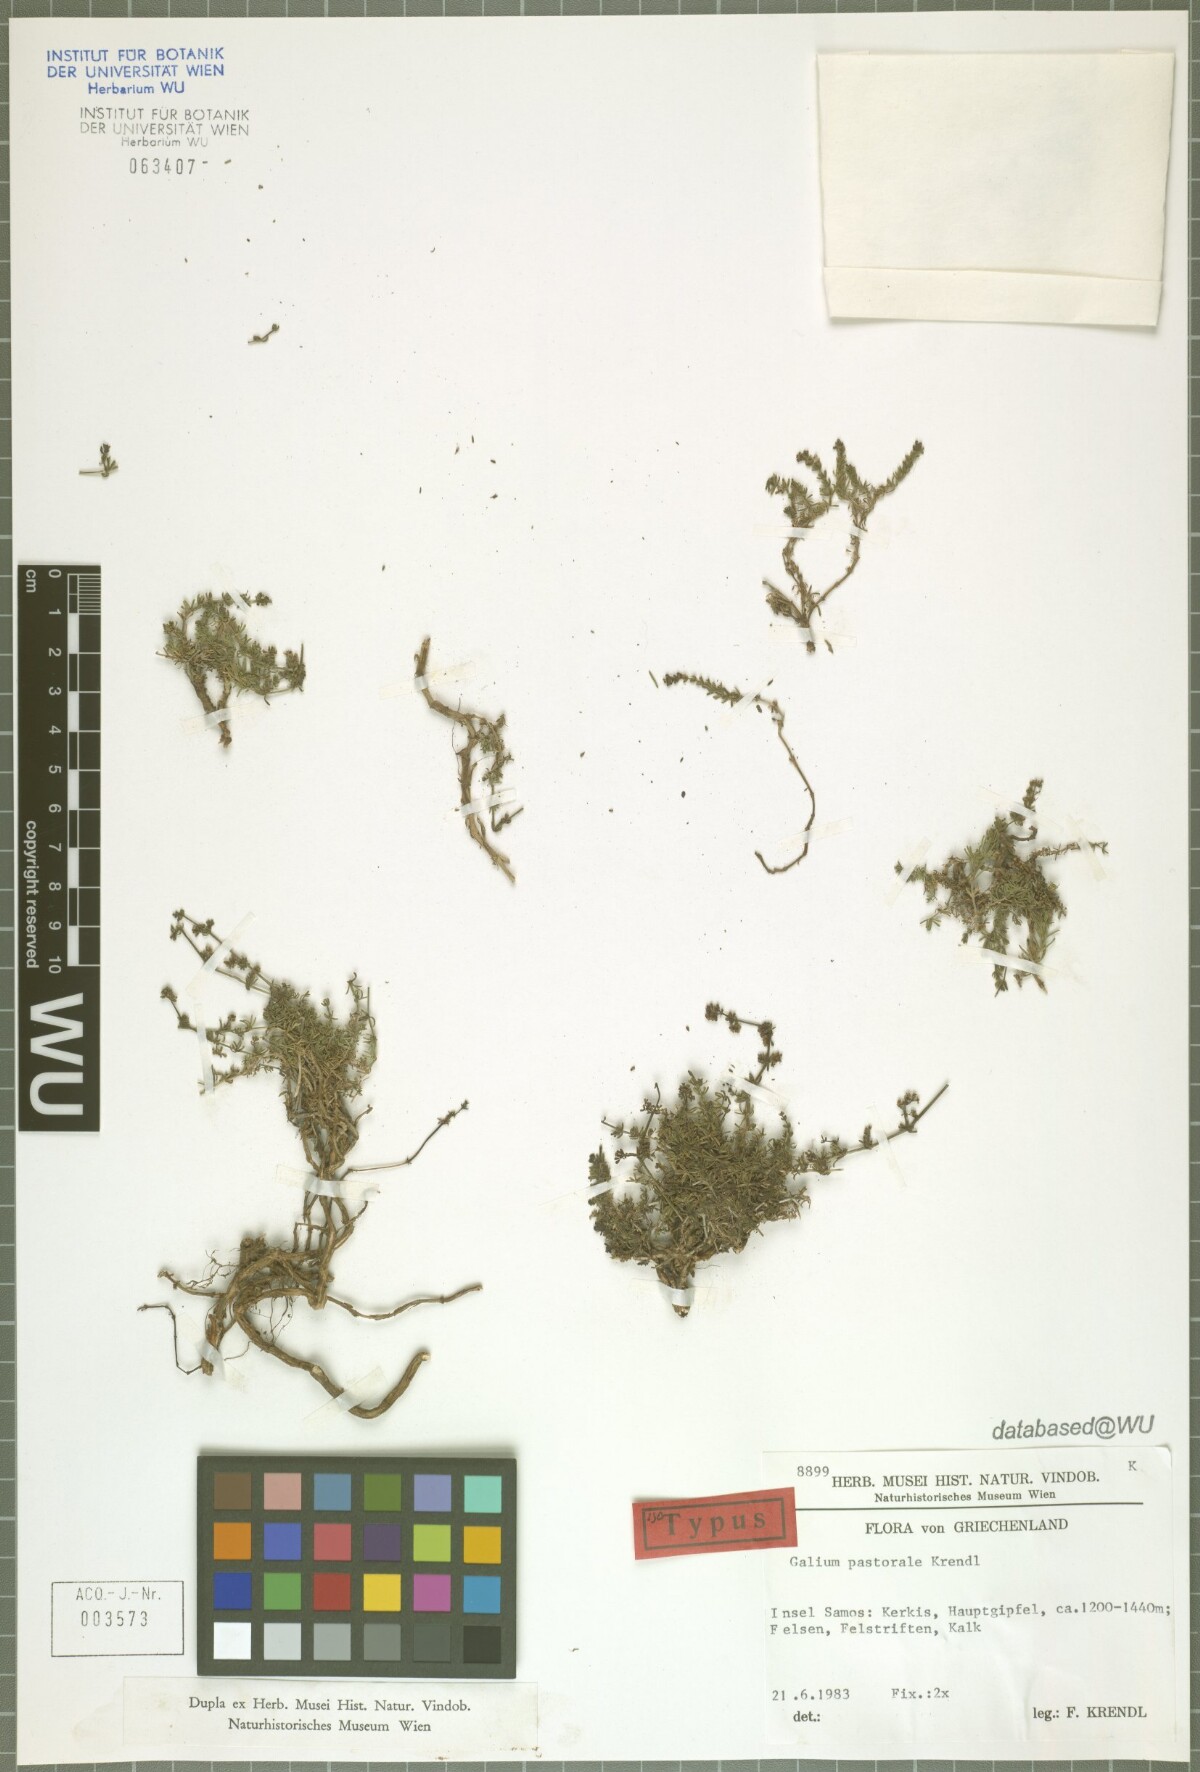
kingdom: Plantae
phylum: Tracheophyta
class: Magnoliopsida
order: Gentianales
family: Rubiaceae
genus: Galium
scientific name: Galium pastorale
